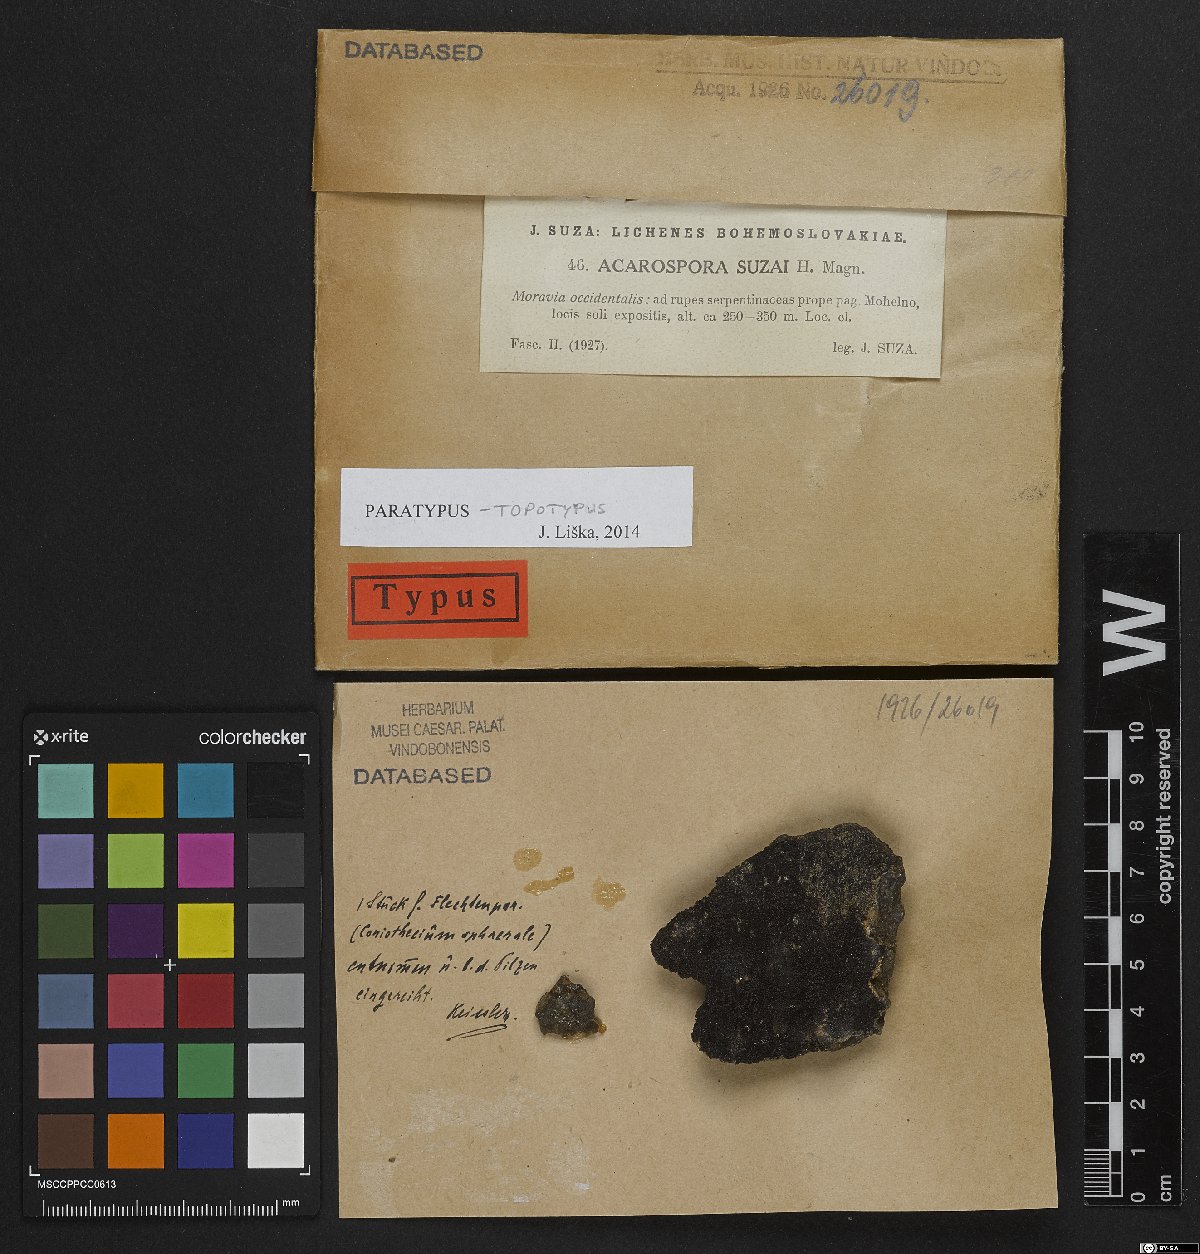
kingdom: Fungi
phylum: Ascomycota
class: Lecanoromycetes
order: Acarosporales
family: Acarosporaceae
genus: Acarospora
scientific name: Acarospora suzai
